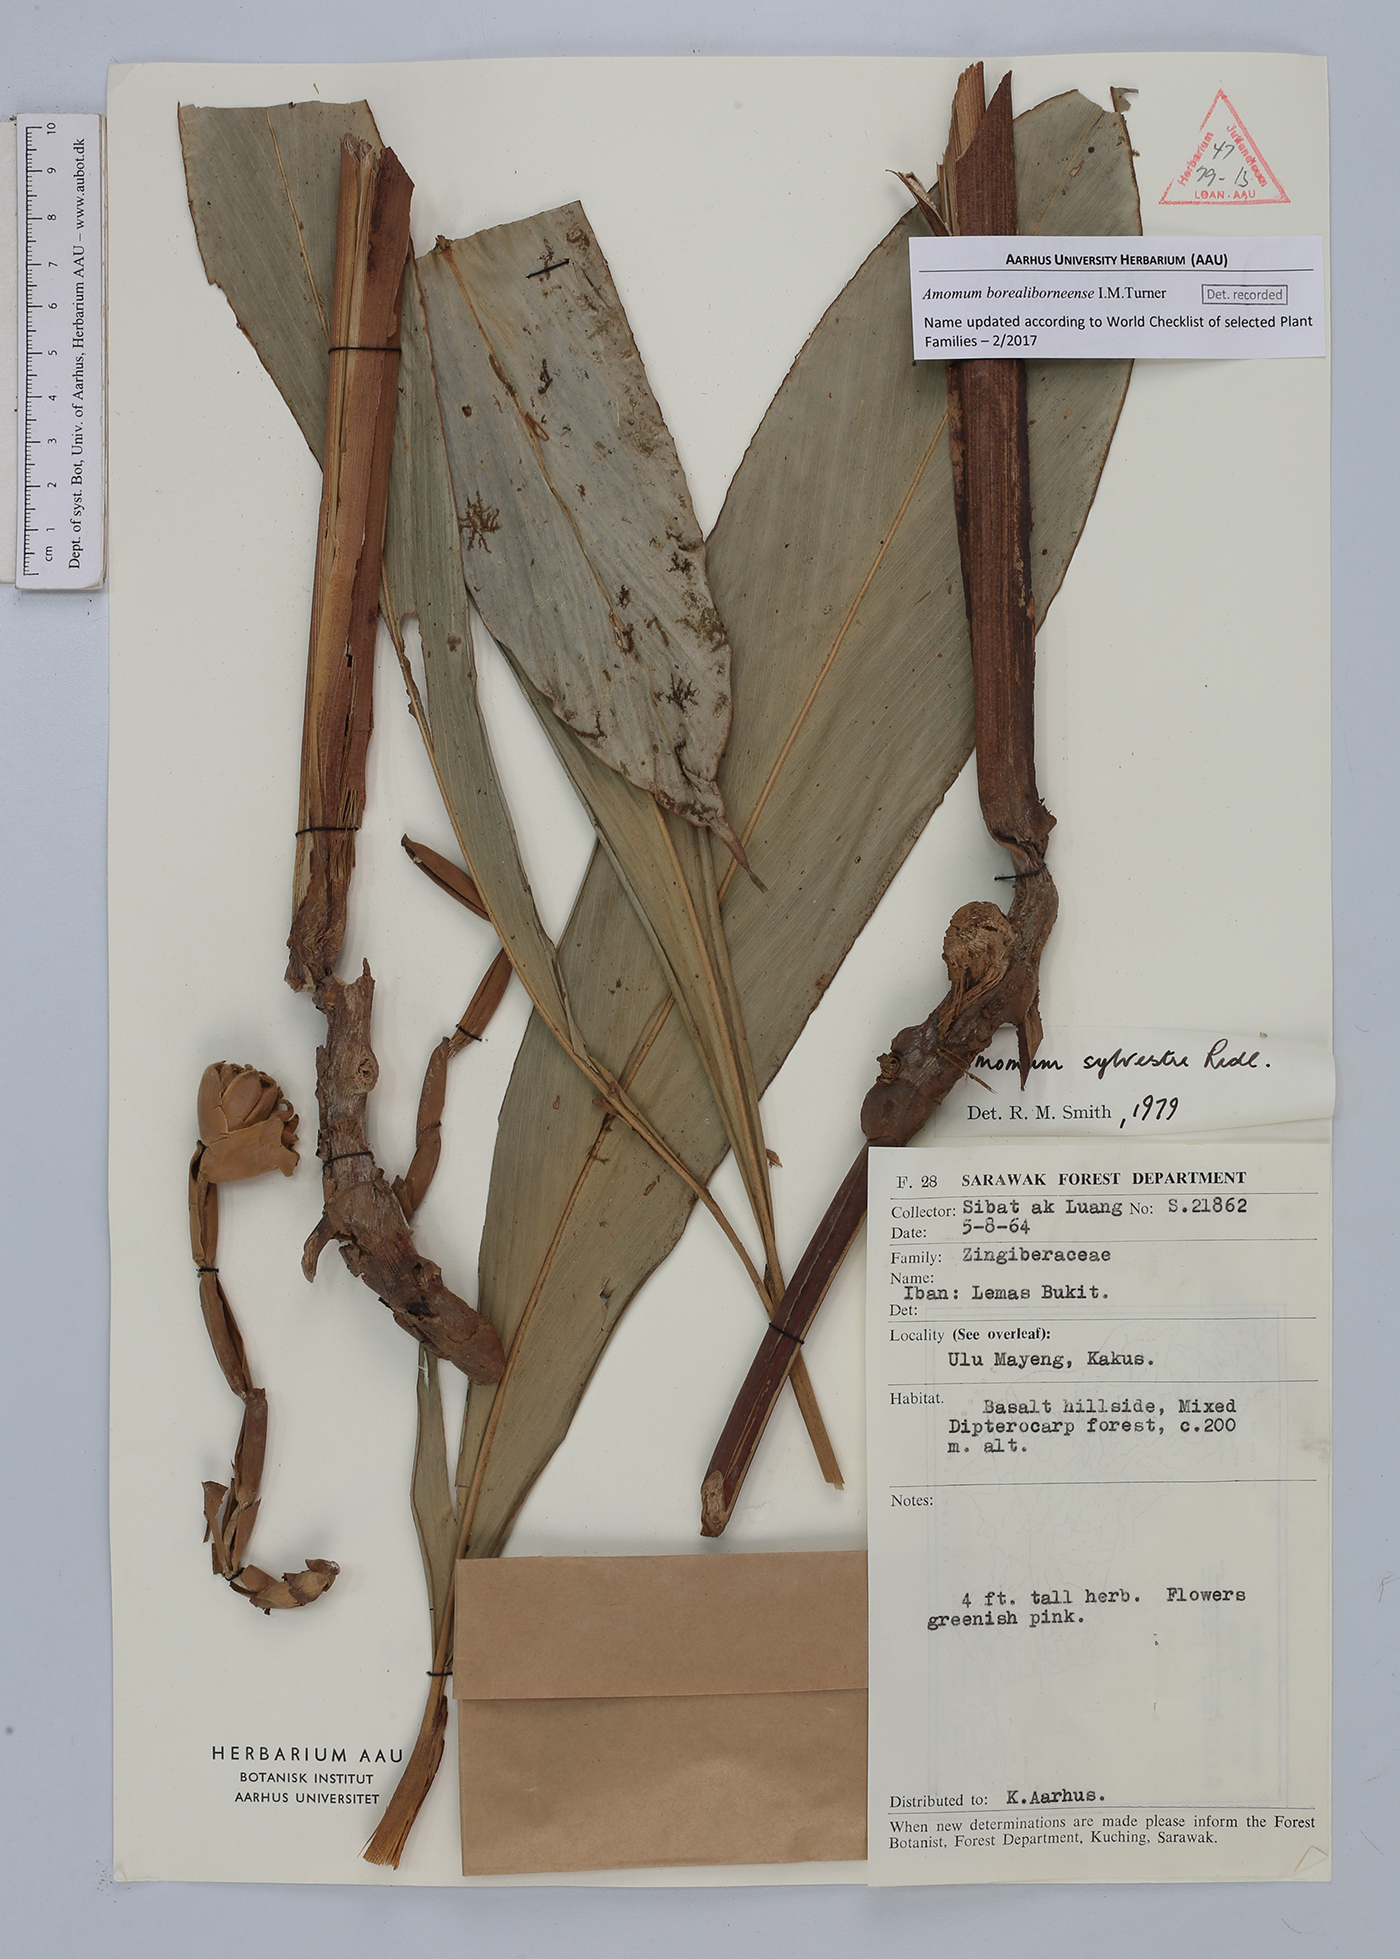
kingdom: Plantae
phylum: Tracheophyta
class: Liliopsida
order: Zingiberales
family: Zingiberaceae
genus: Sundamomum
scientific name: Sundamomum borealiborneense
